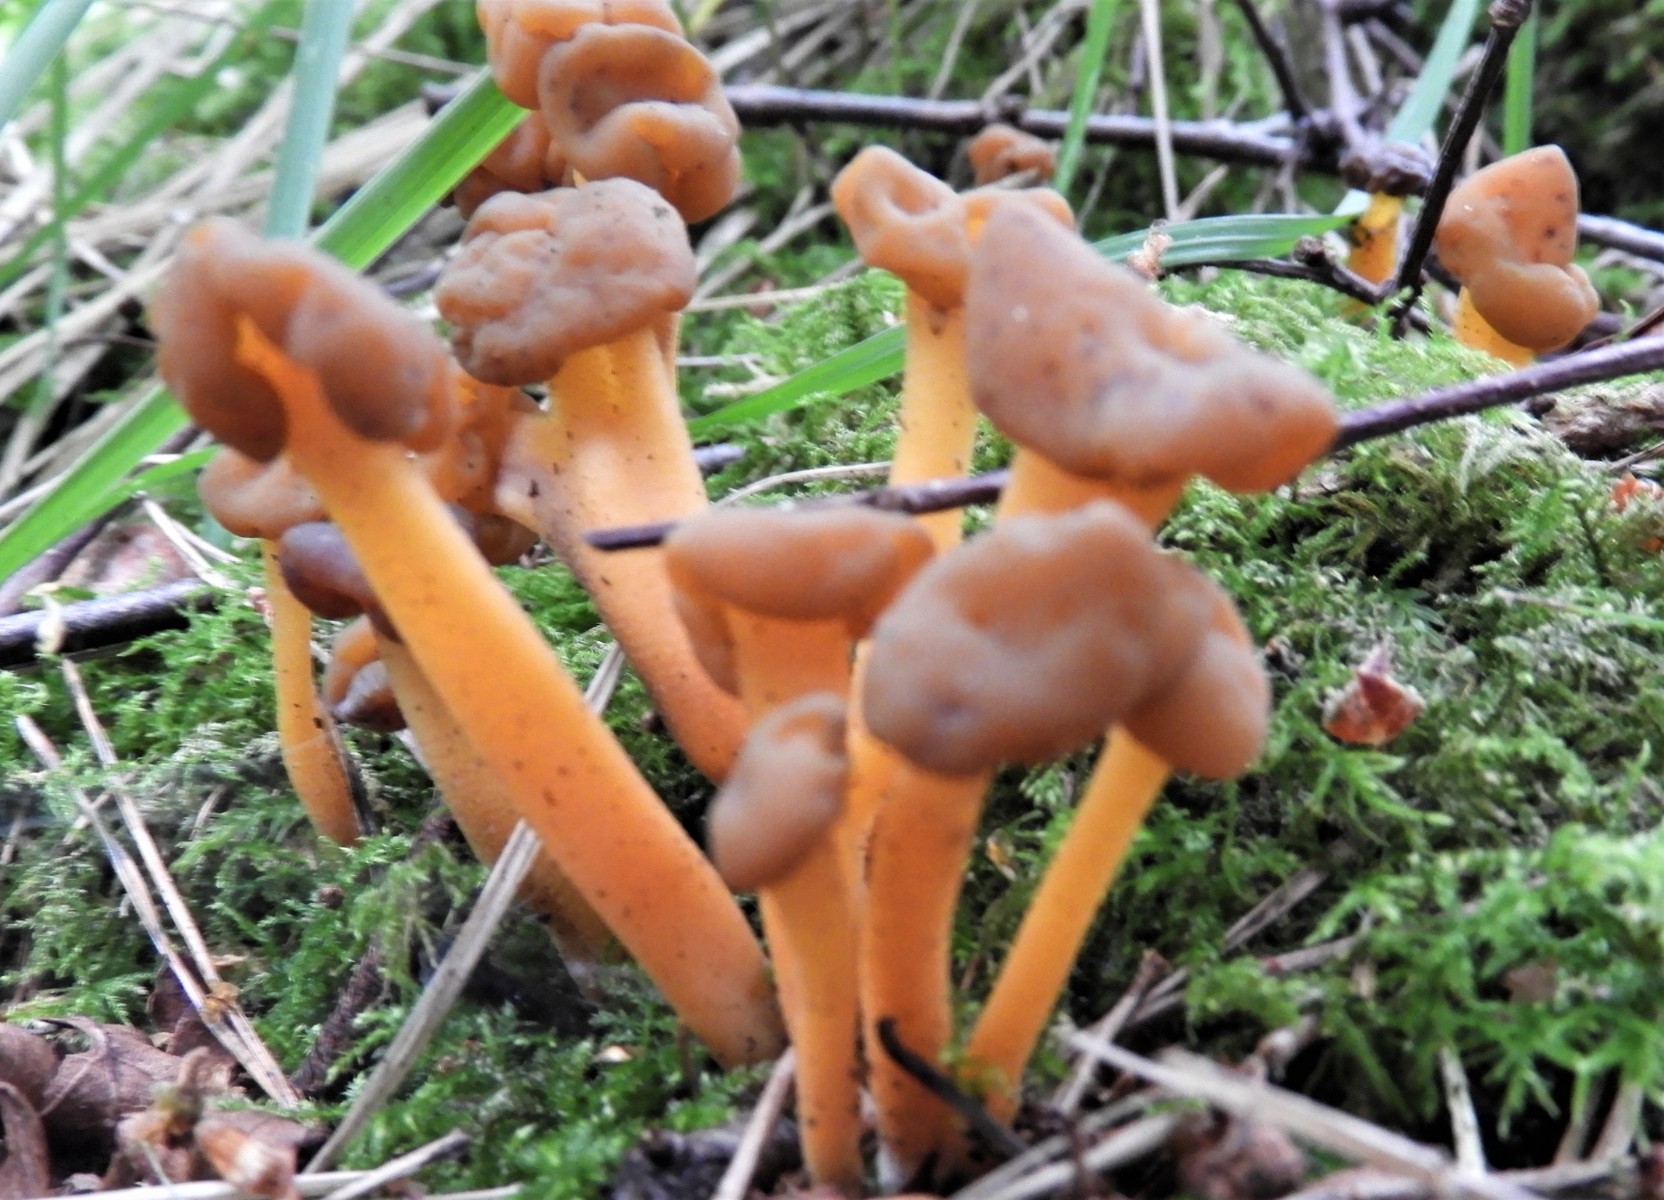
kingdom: Fungi
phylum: Ascomycota
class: Leotiomycetes
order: Leotiales
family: Leotiaceae
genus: Leotia
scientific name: Leotia lubrica
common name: ravsvamp
